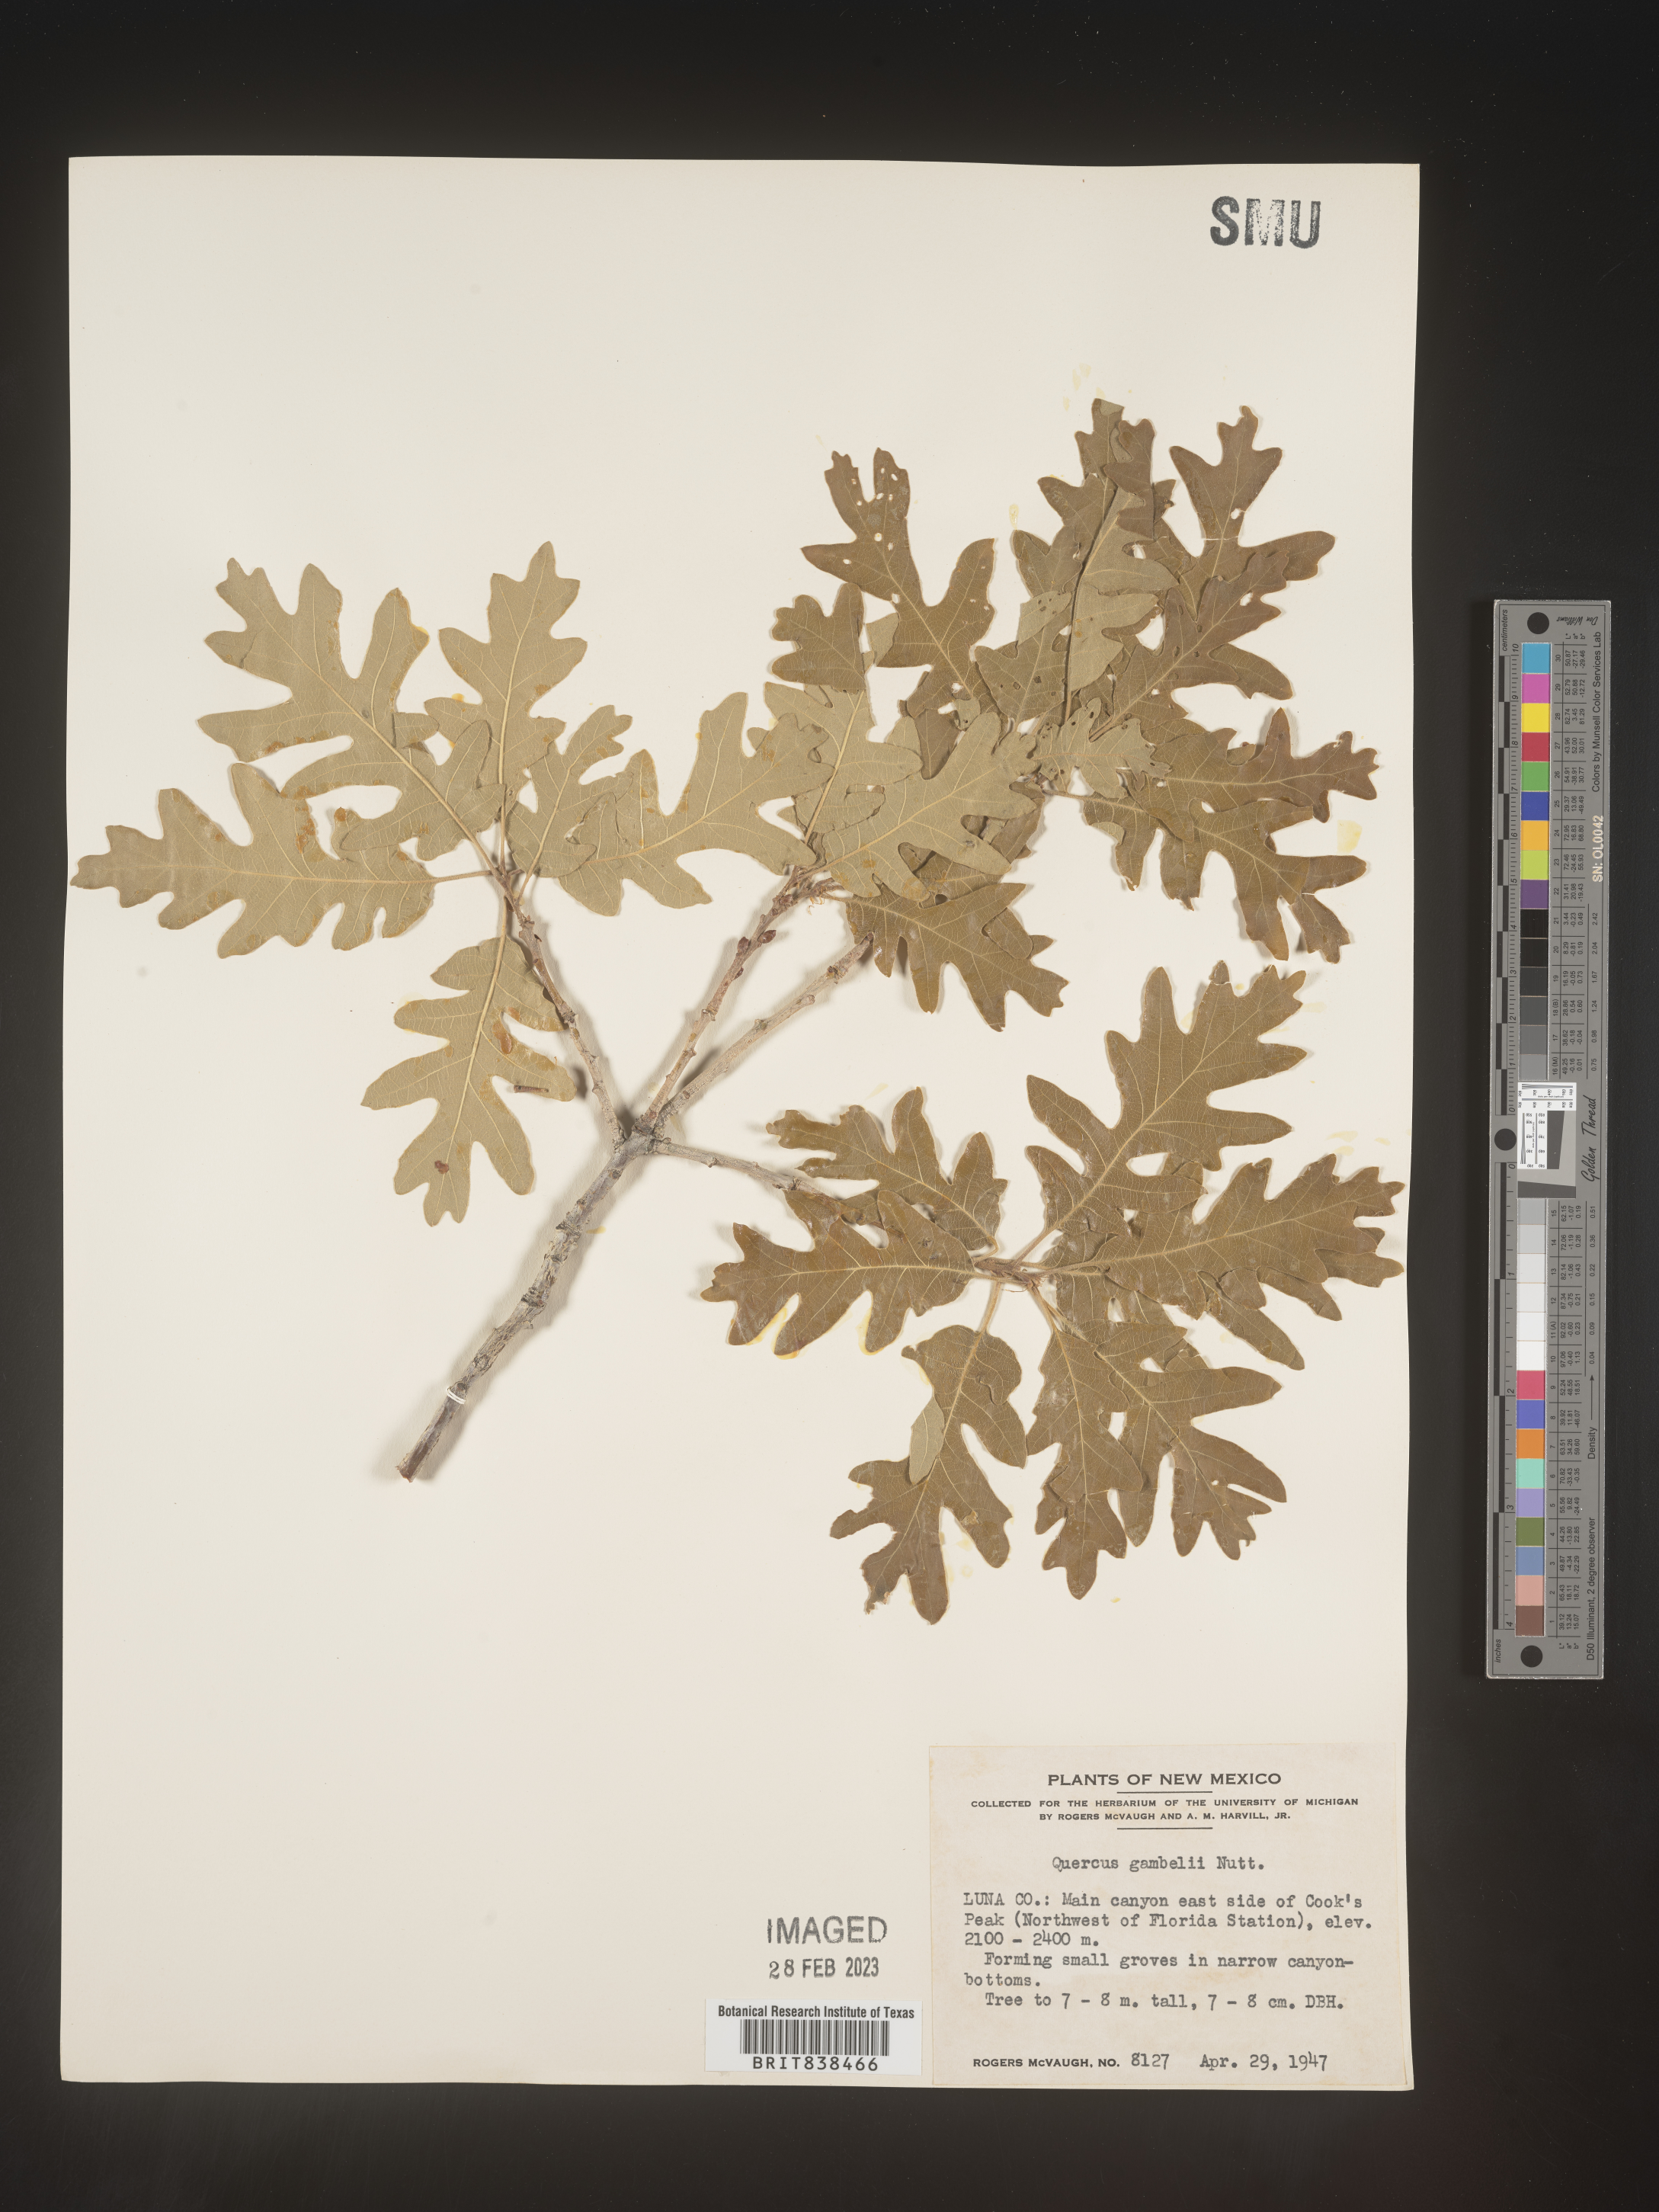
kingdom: Plantae
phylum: Tracheophyta
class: Magnoliopsida
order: Fagales
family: Fagaceae
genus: Quercus
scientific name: Quercus gambelii
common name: Gambel oak
